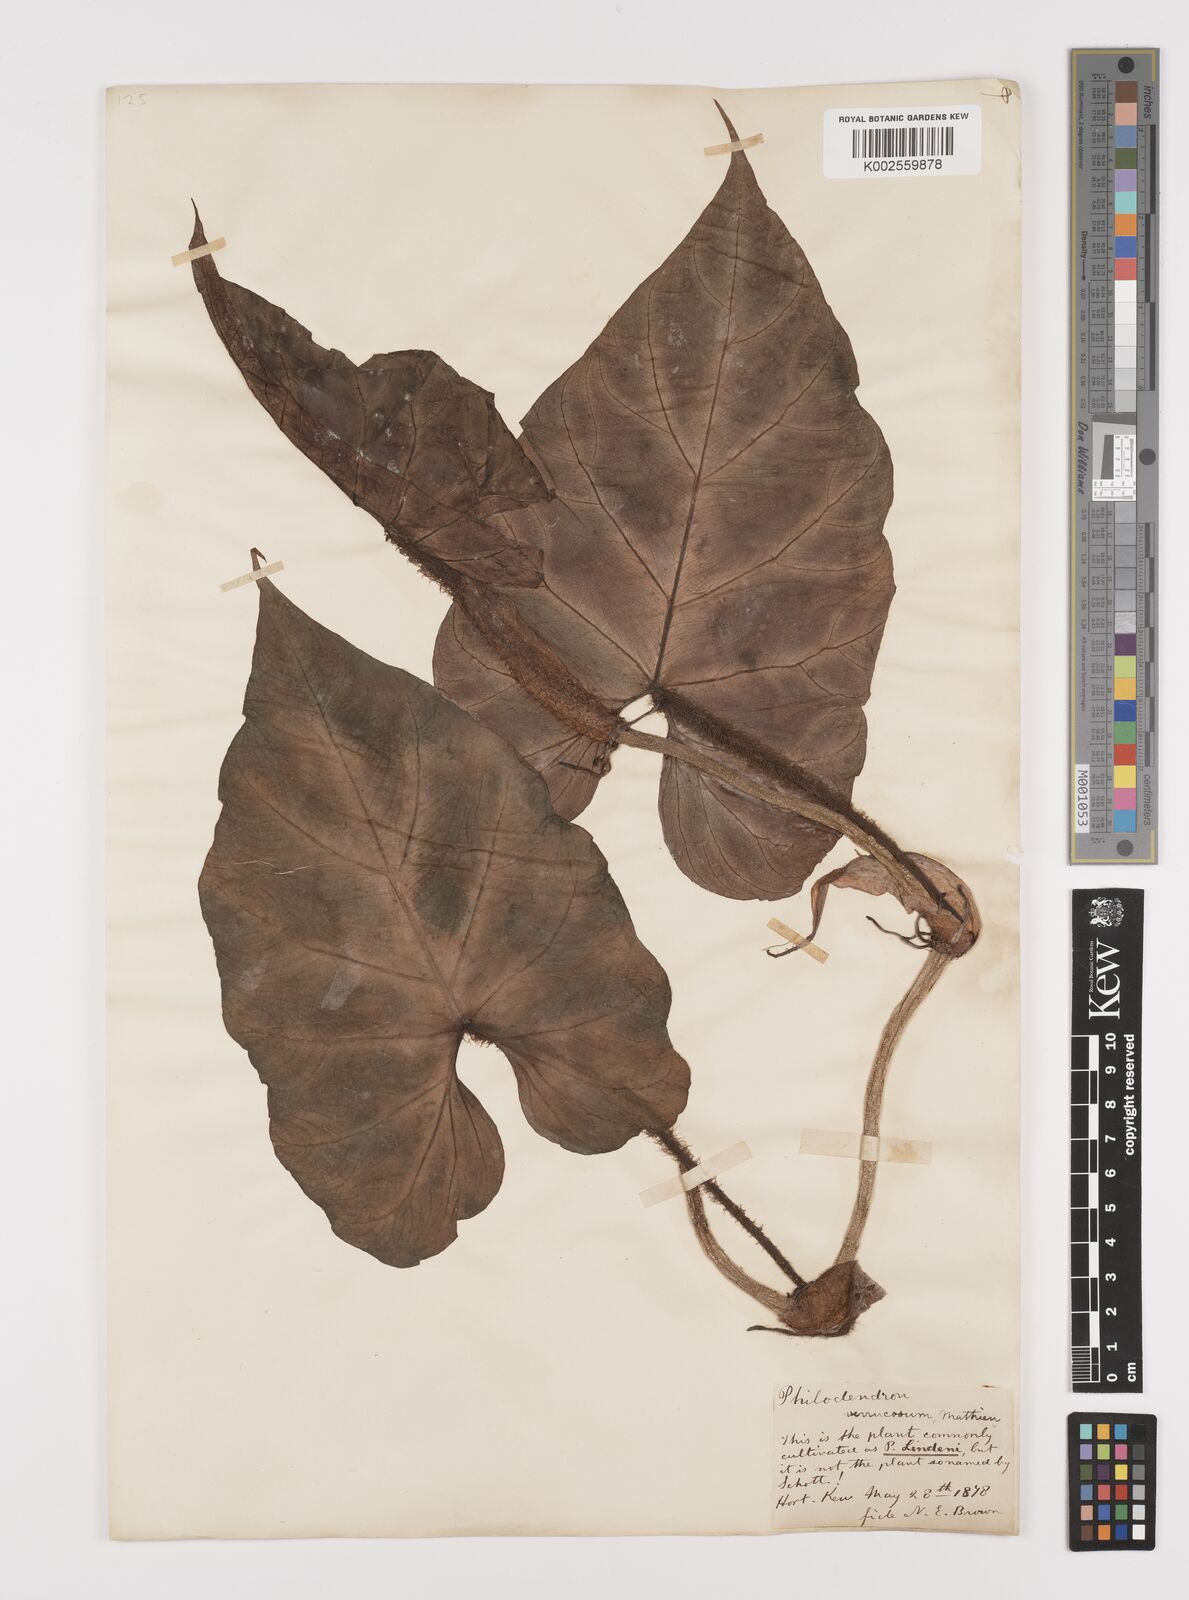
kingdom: Plantae
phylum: Tracheophyta
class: Liliopsida
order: Alismatales
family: Araceae
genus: Philodendron
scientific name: Philodendron verrucosum
